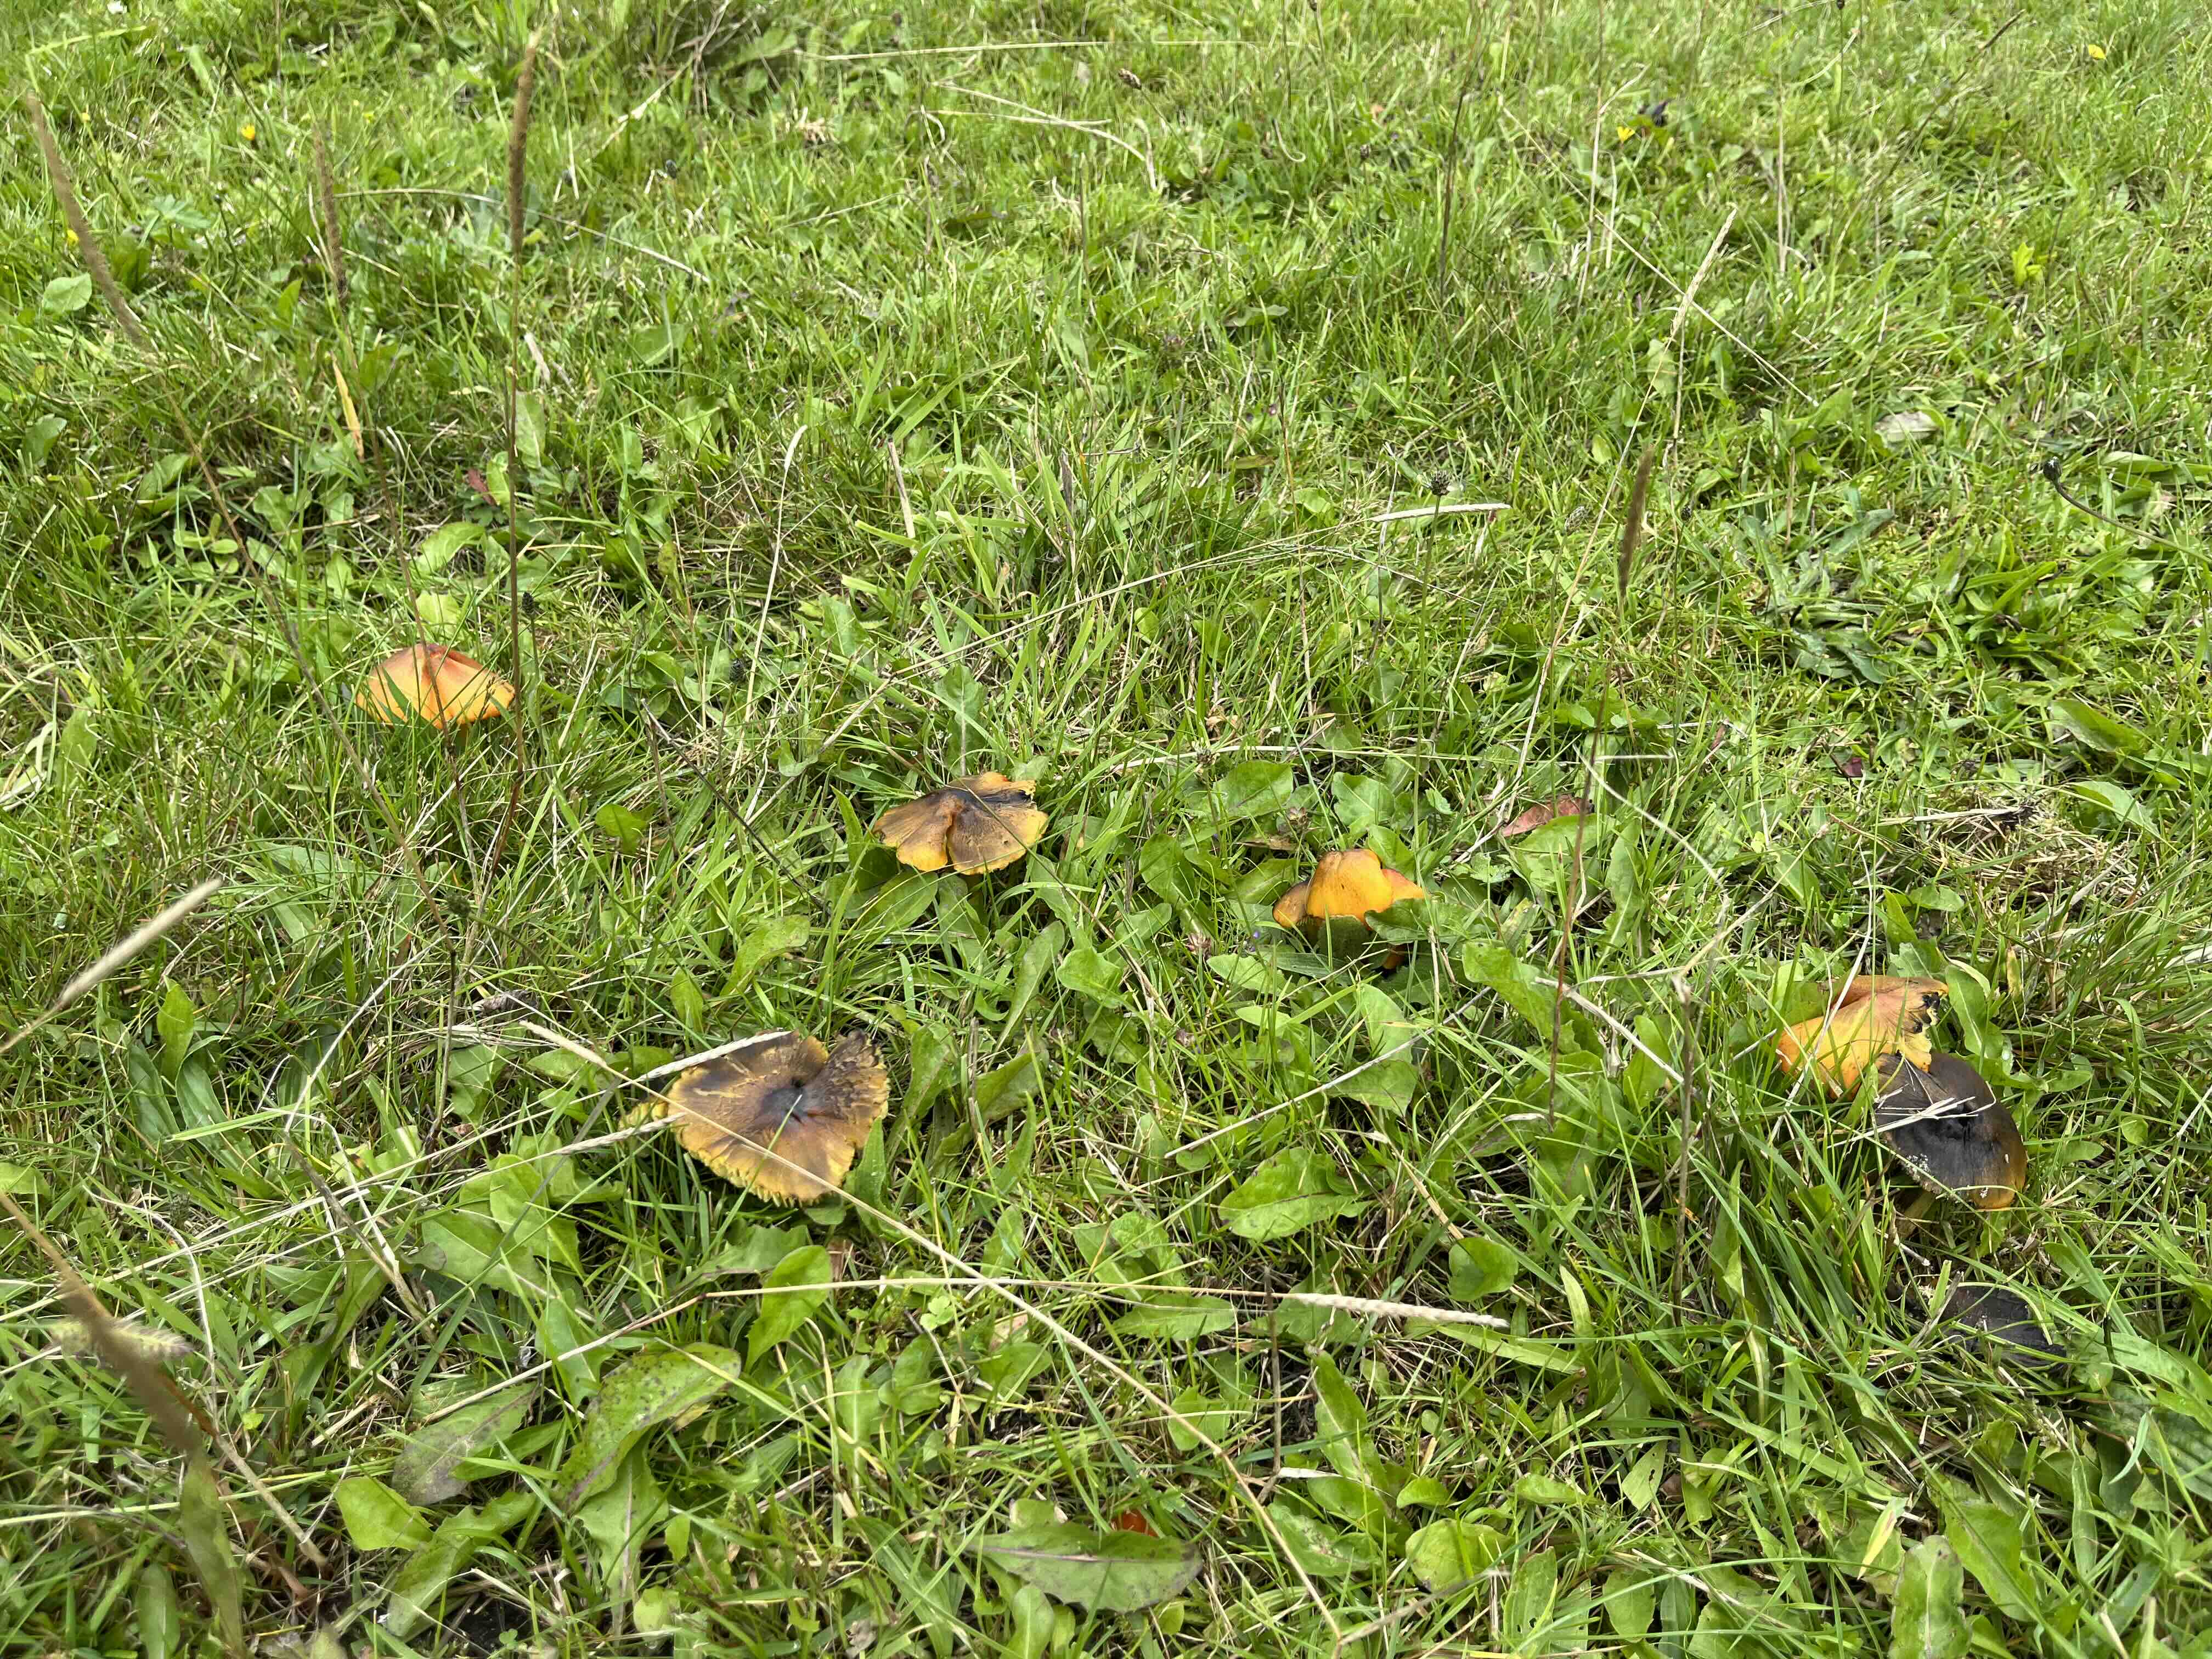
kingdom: Fungi
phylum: Basidiomycota
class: Agaricomycetes
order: Agaricales
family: Hygrophoraceae
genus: Hygrocybe
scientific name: Hygrocybe conica
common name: kegle-vokshat
